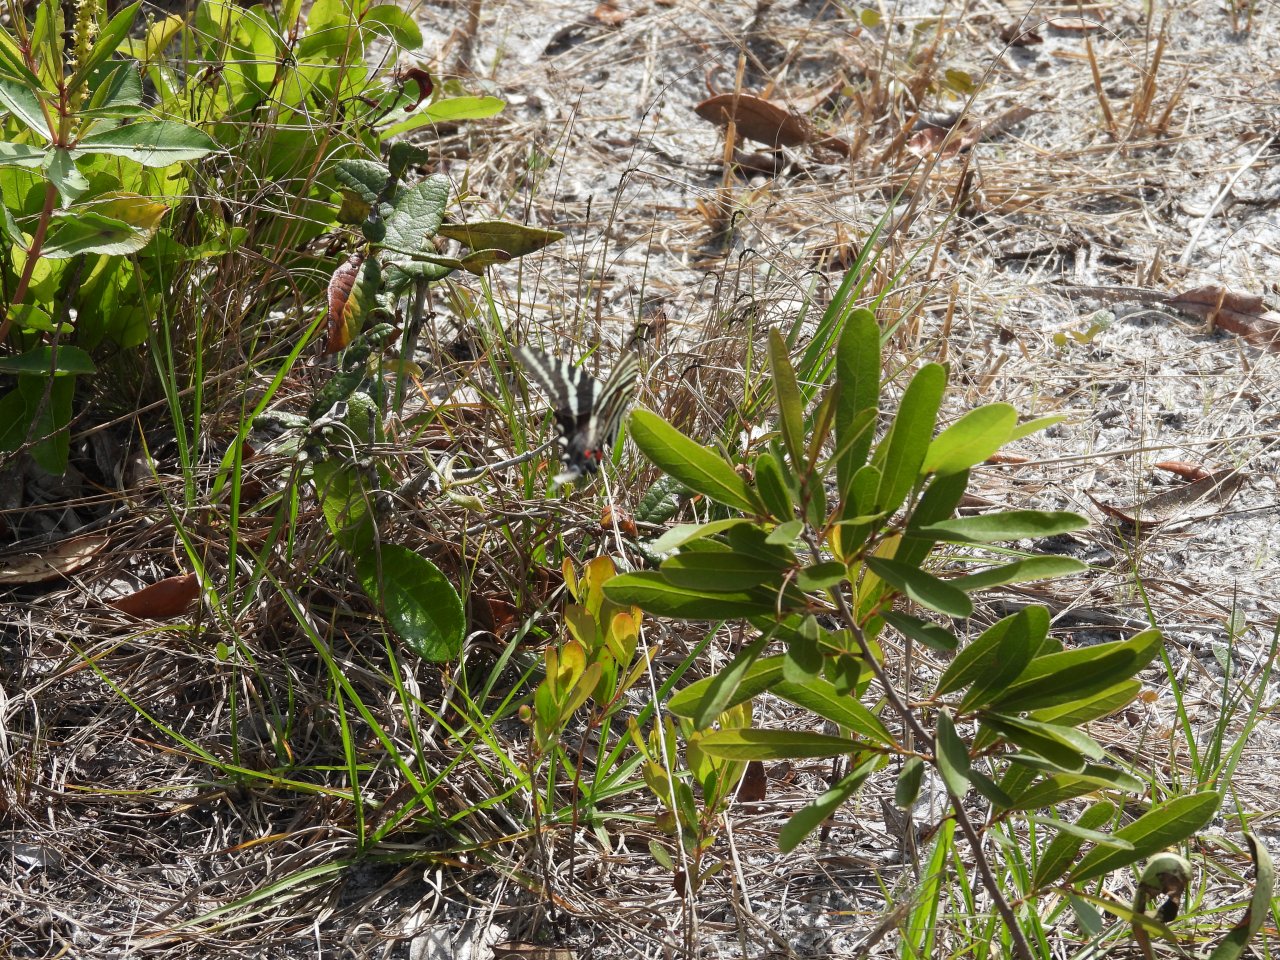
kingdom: Animalia
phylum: Arthropoda
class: Insecta
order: Lepidoptera
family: Papilionidae
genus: Protographium
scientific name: Protographium marcellus
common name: Zebra Swallowtail
